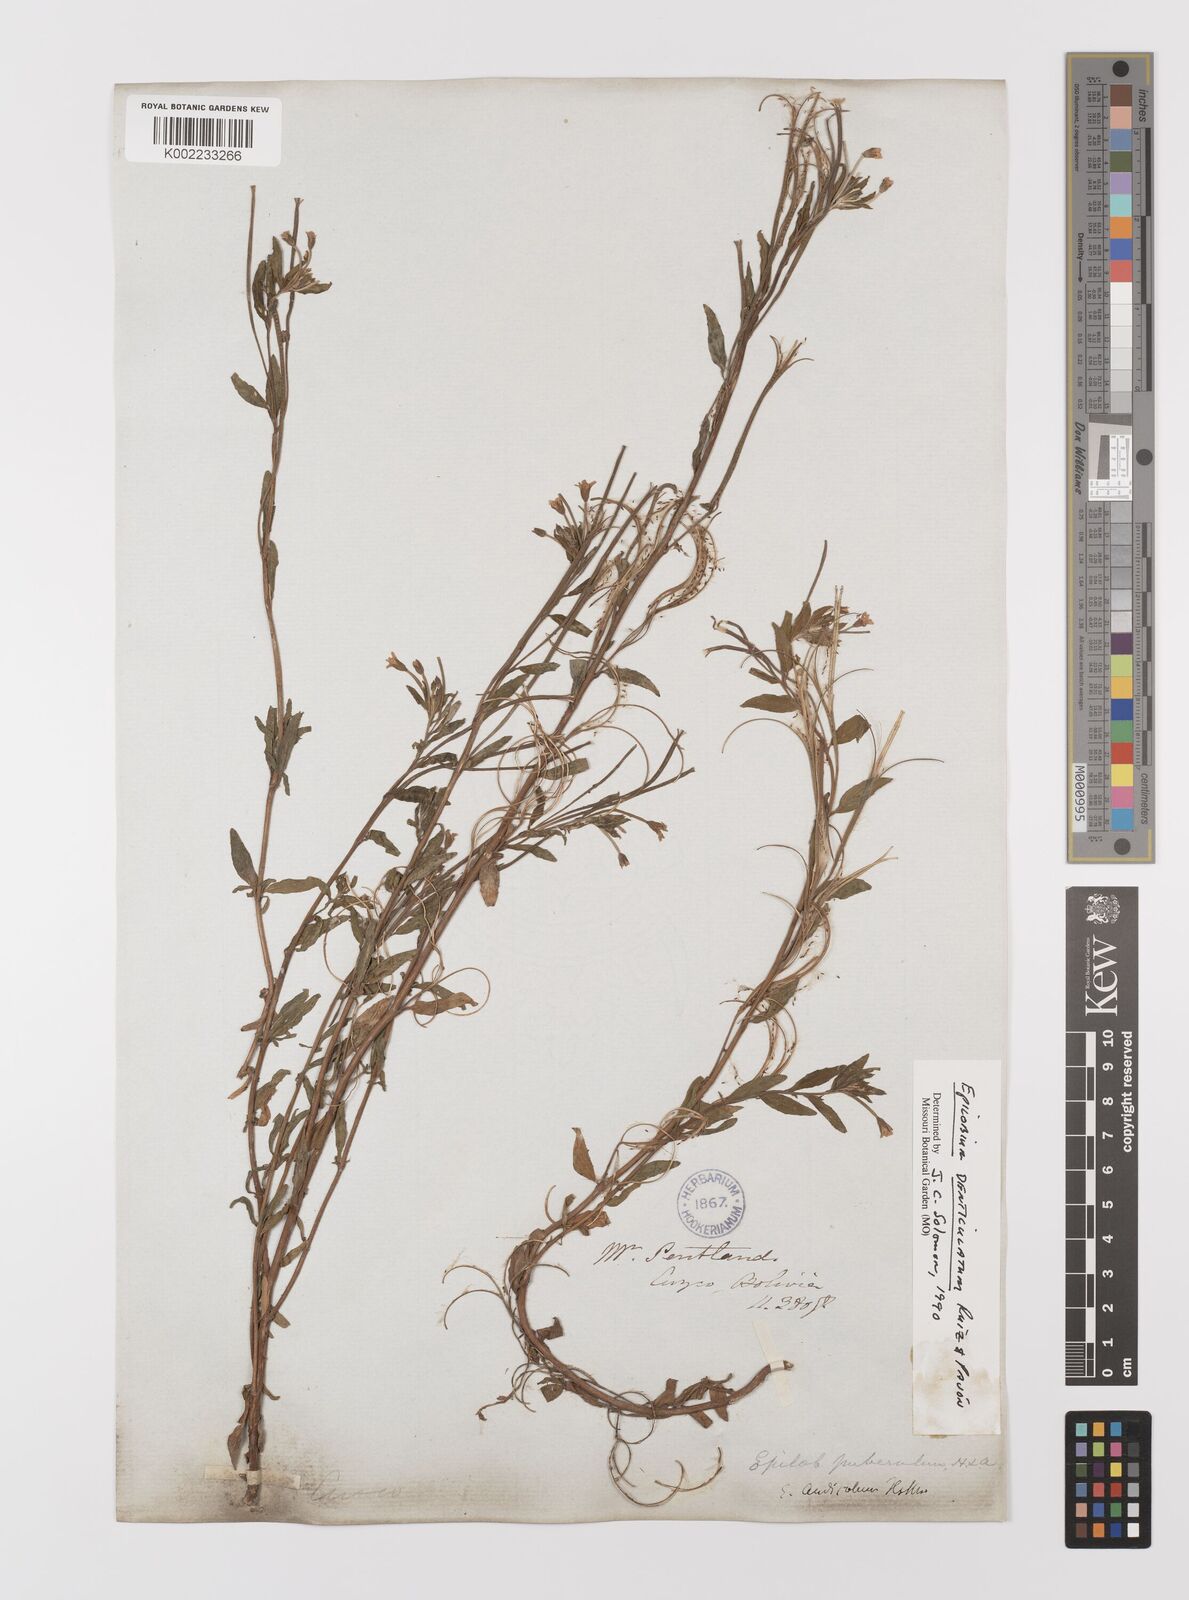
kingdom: Plantae
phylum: Tracheophyta
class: Magnoliopsida
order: Myrtales
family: Onagraceae
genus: Epilobium
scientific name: Epilobium
